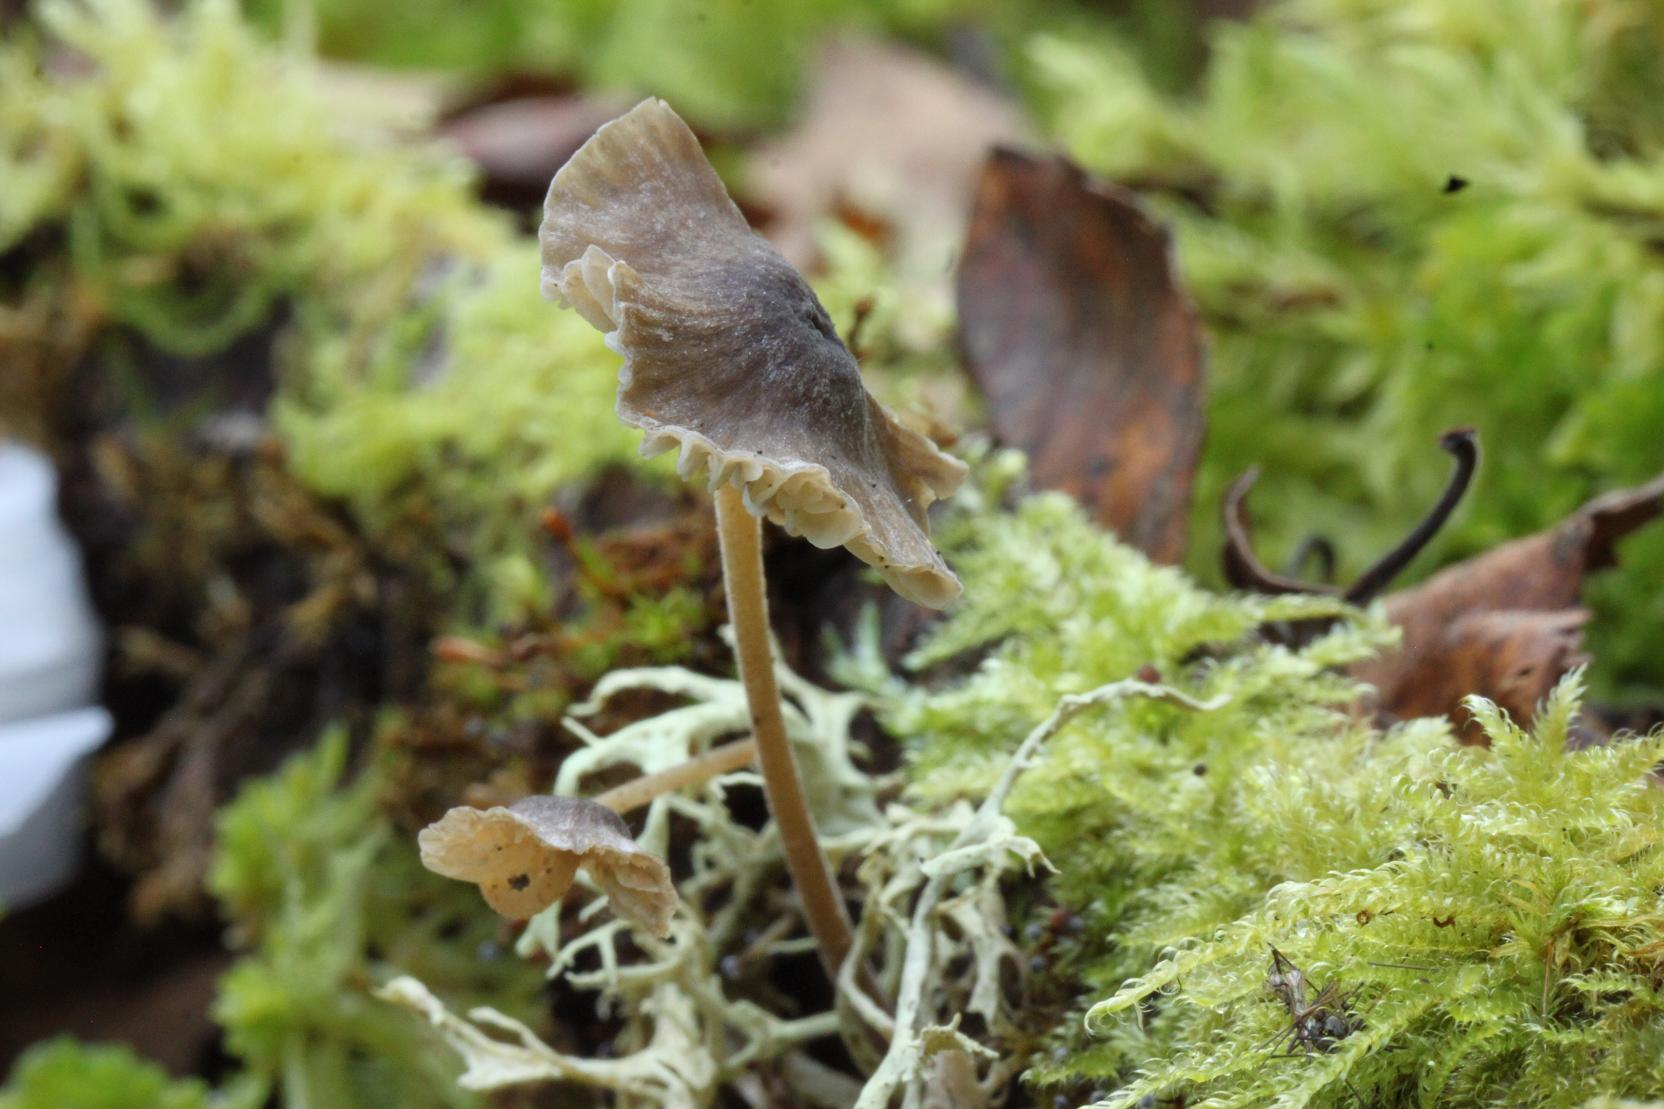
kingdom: Fungi
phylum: Basidiomycota
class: Agaricomycetes
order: Agaricales
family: Tricholomataceae
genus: Mycenella
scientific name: Mycenella lasiosperma
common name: stjernesporet dughat
